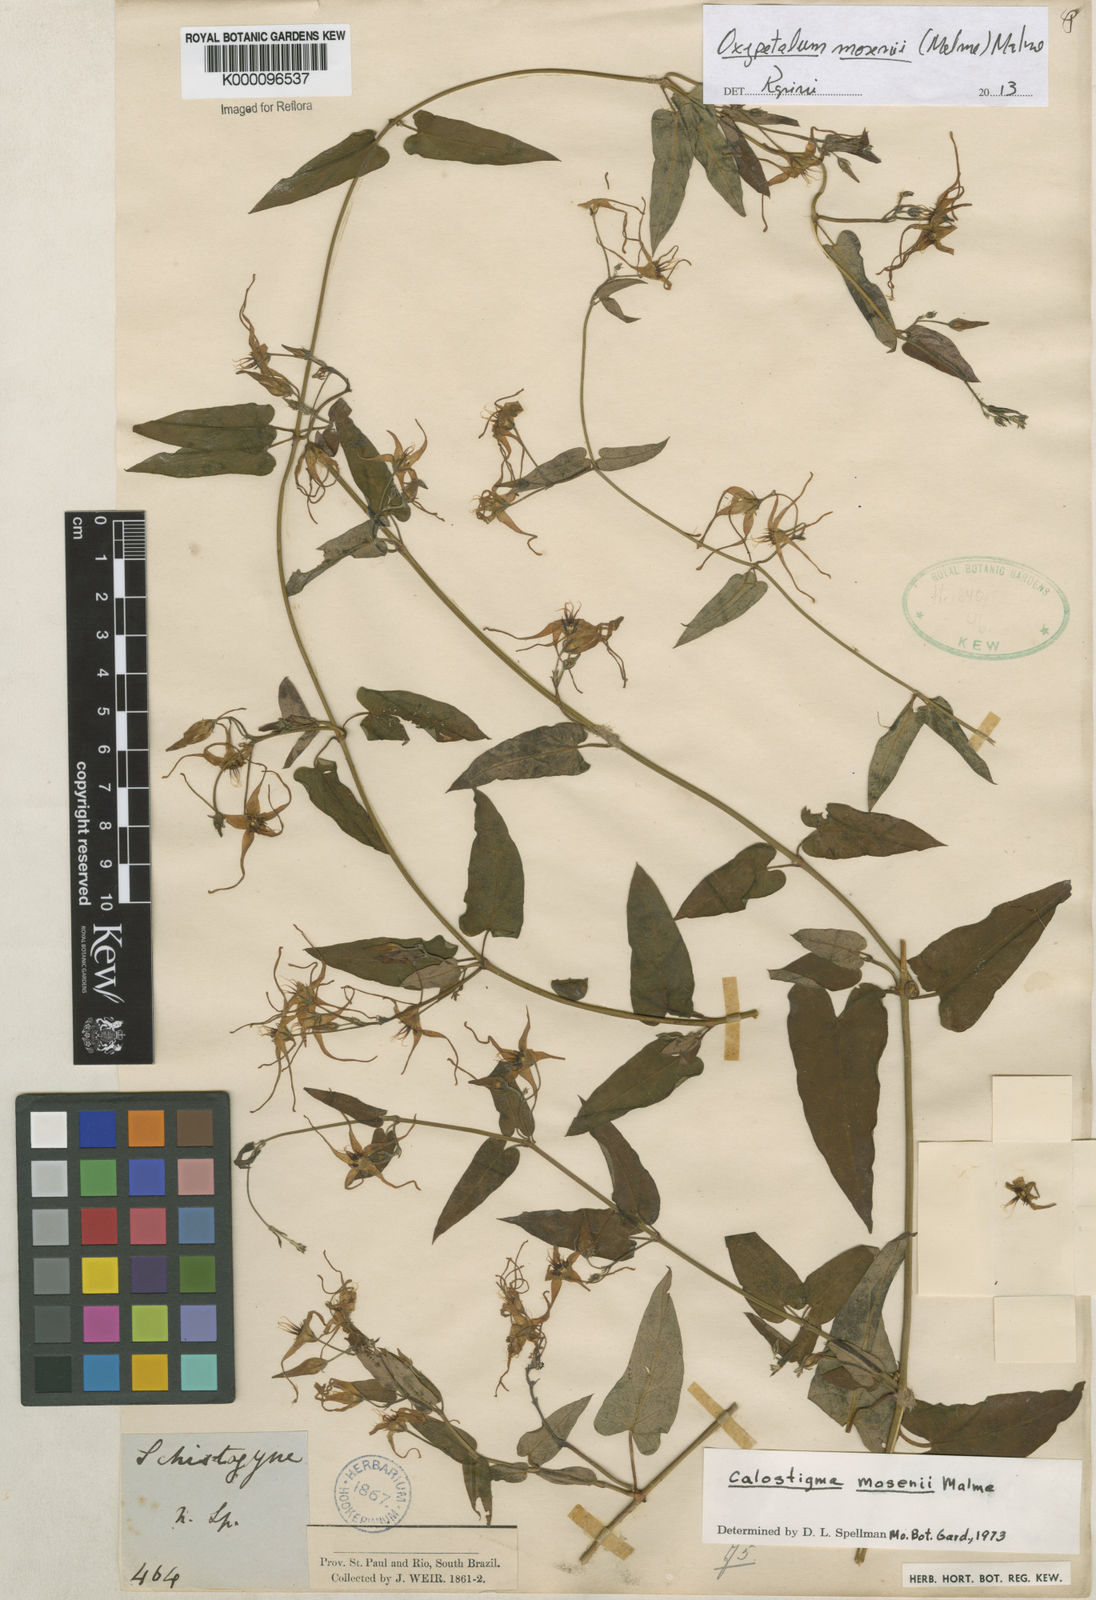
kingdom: Plantae
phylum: Tracheophyta
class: Magnoliopsida
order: Gentianales
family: Apocynaceae
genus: Oxypetalum
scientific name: Oxypetalum mosenii
